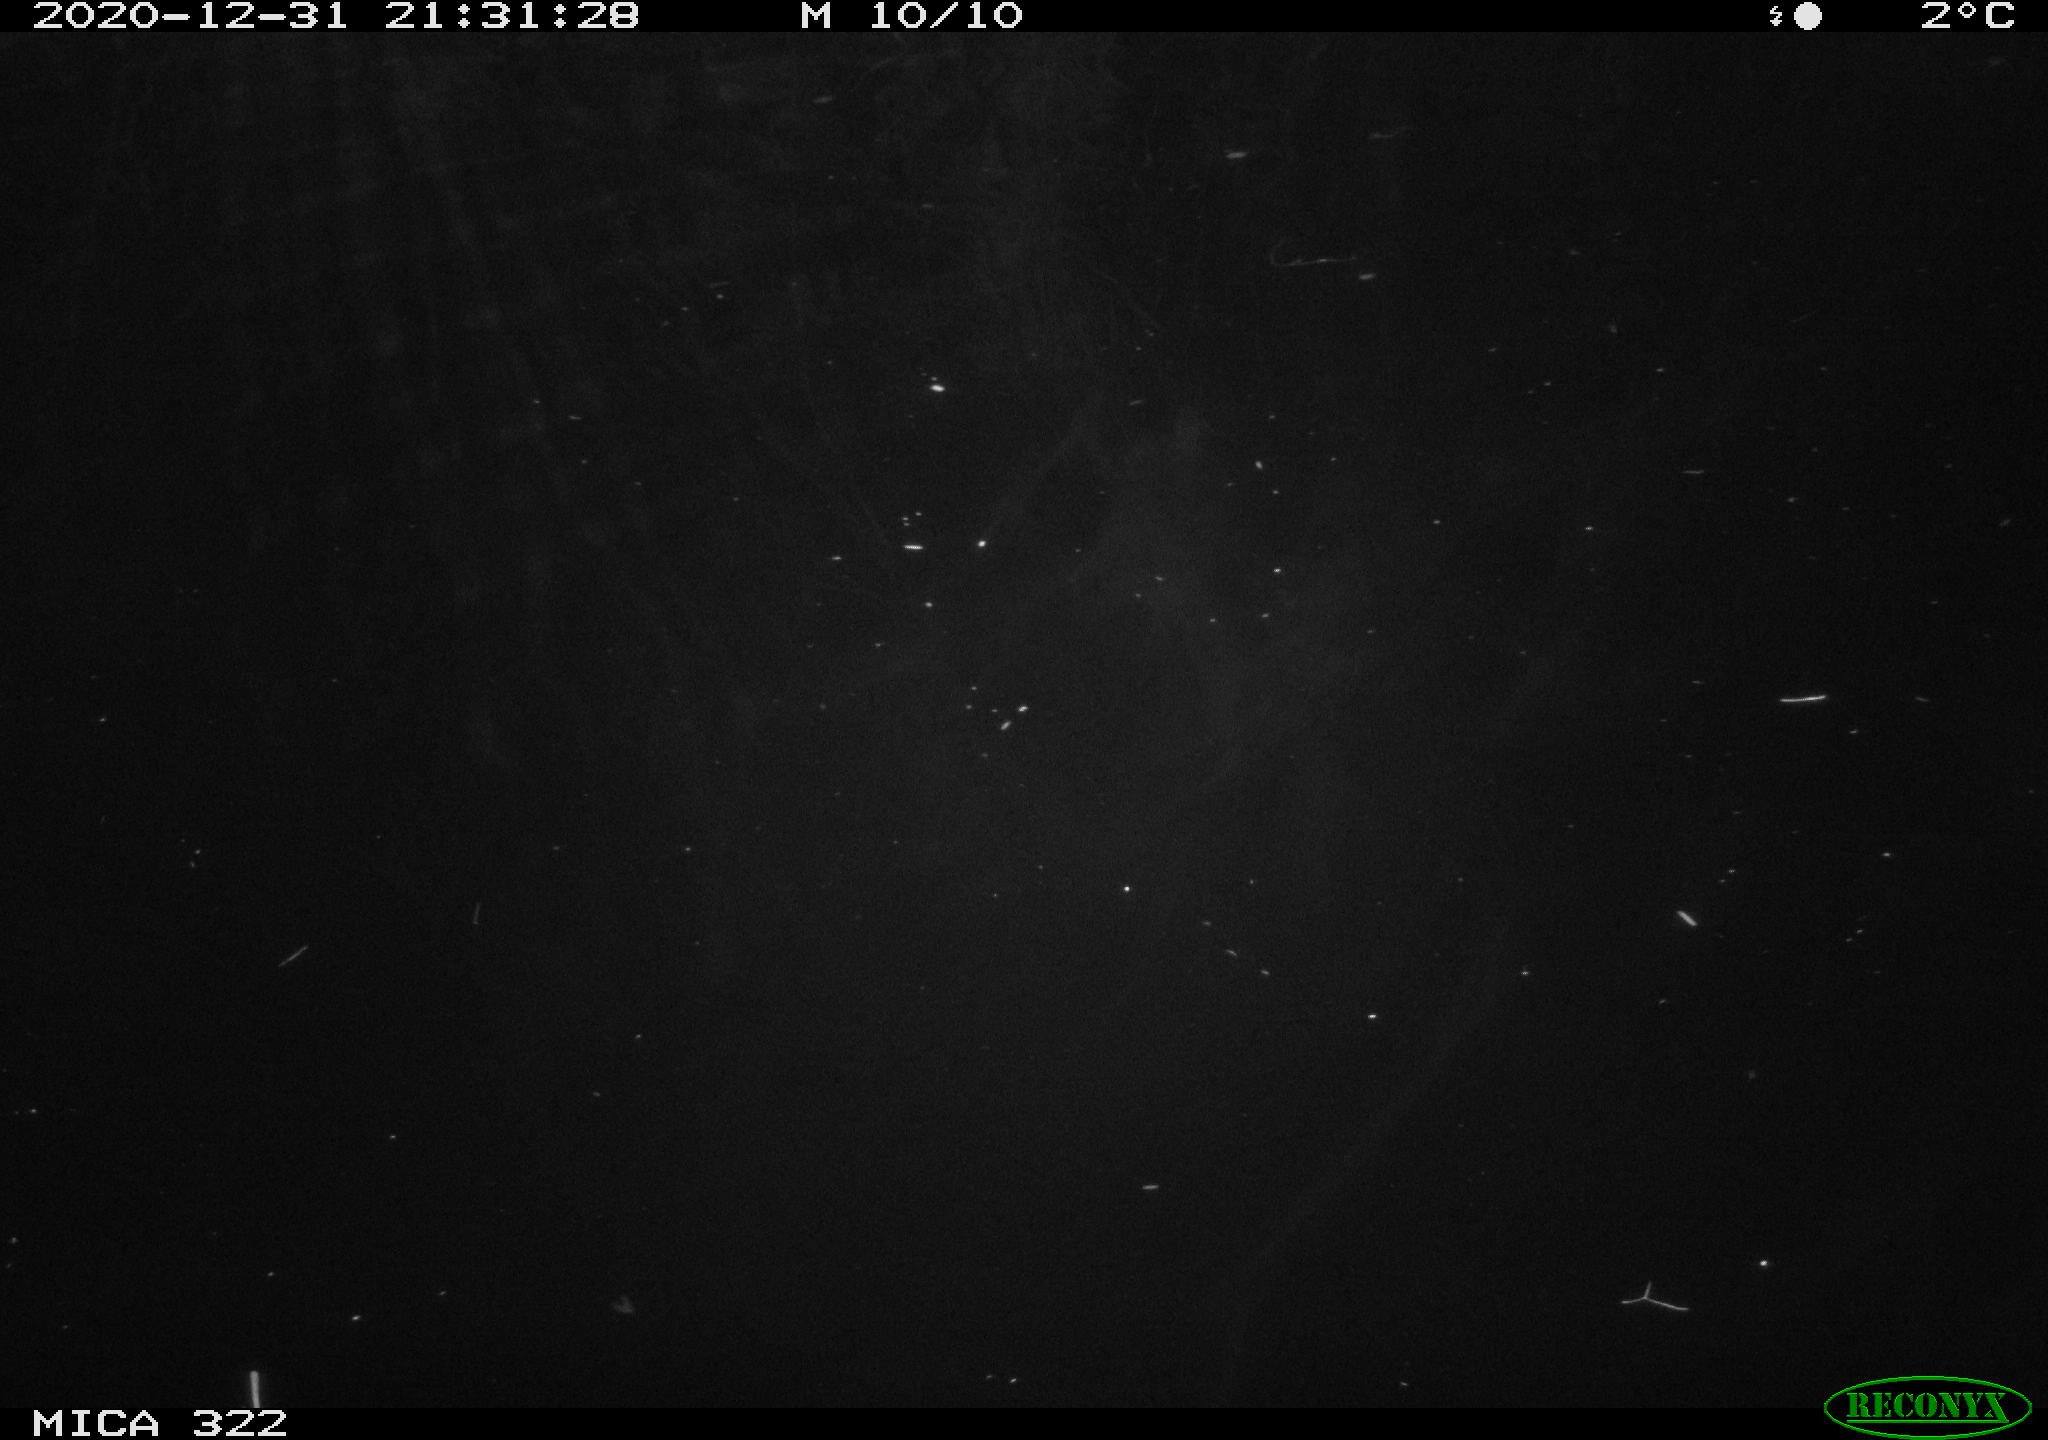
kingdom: Animalia
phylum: Chordata
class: Aves
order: Anseriformes
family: Anatidae
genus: Anas
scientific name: Anas platyrhynchos
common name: Mallard
